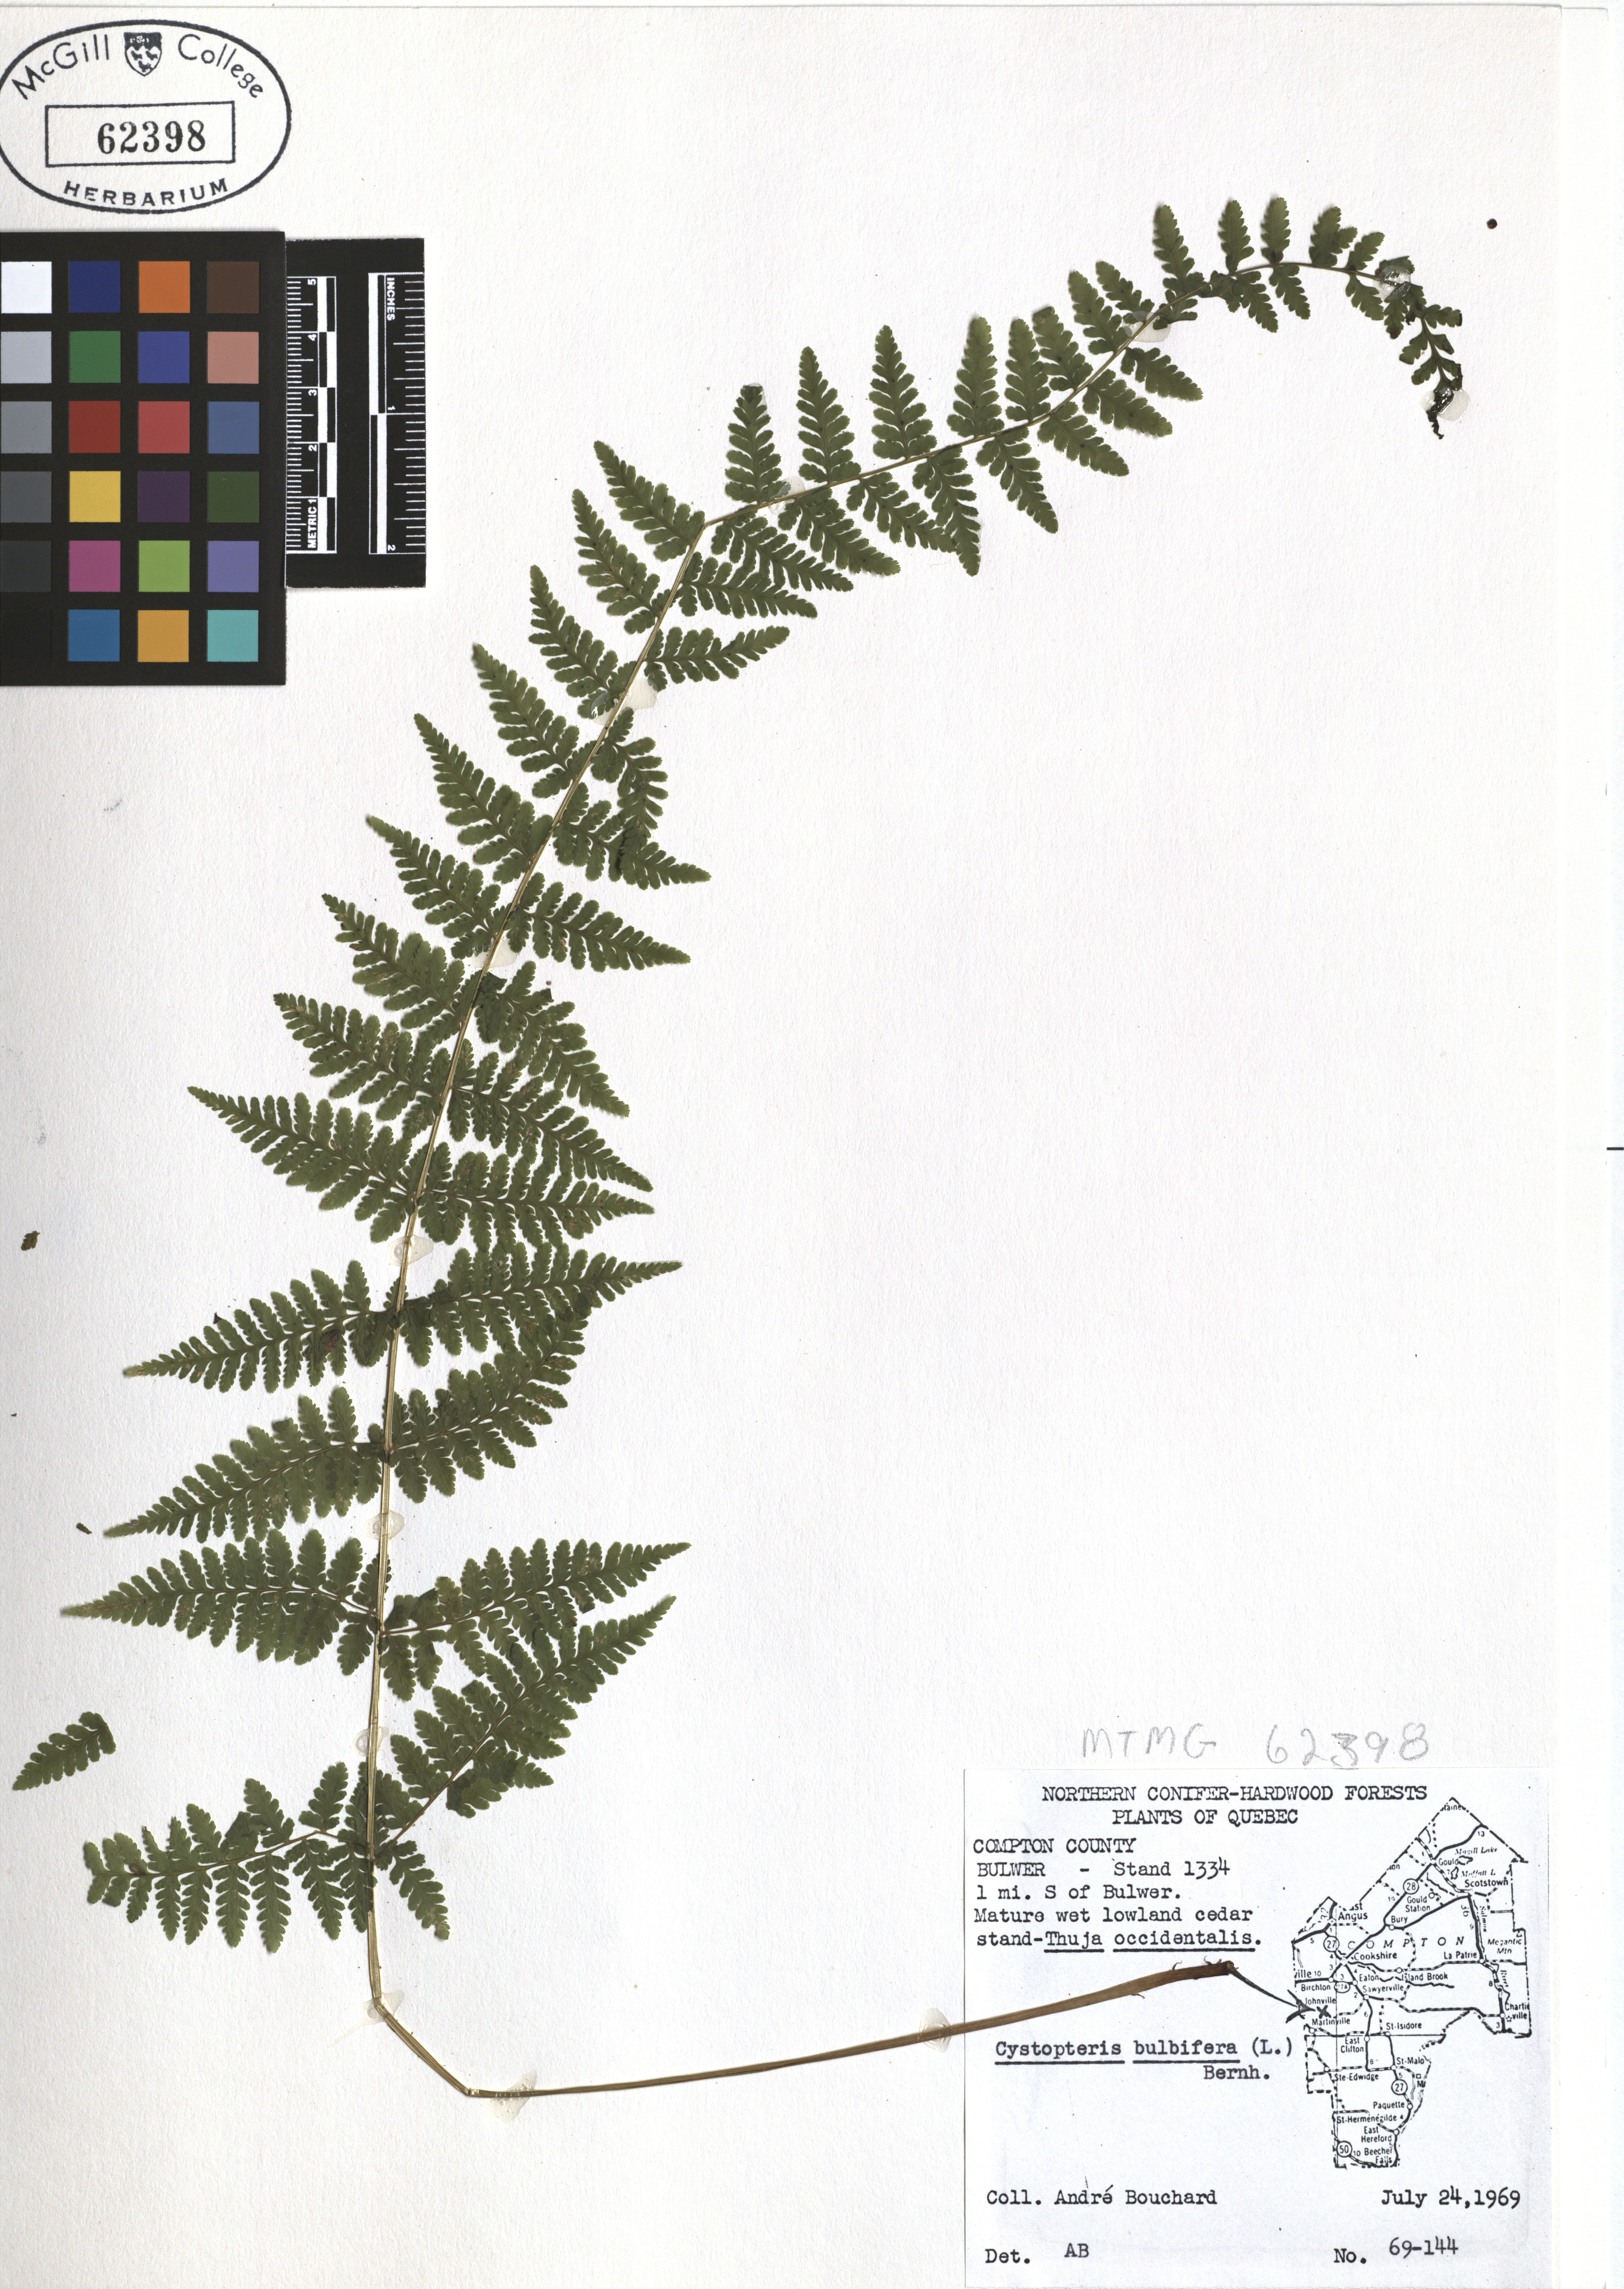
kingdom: Plantae
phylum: Tracheophyta
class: Polypodiopsida
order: Polypodiales
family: Cystopteridaceae
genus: Cystopteris
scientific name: Cystopteris bulbifera
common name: Bulblet bladder fern
